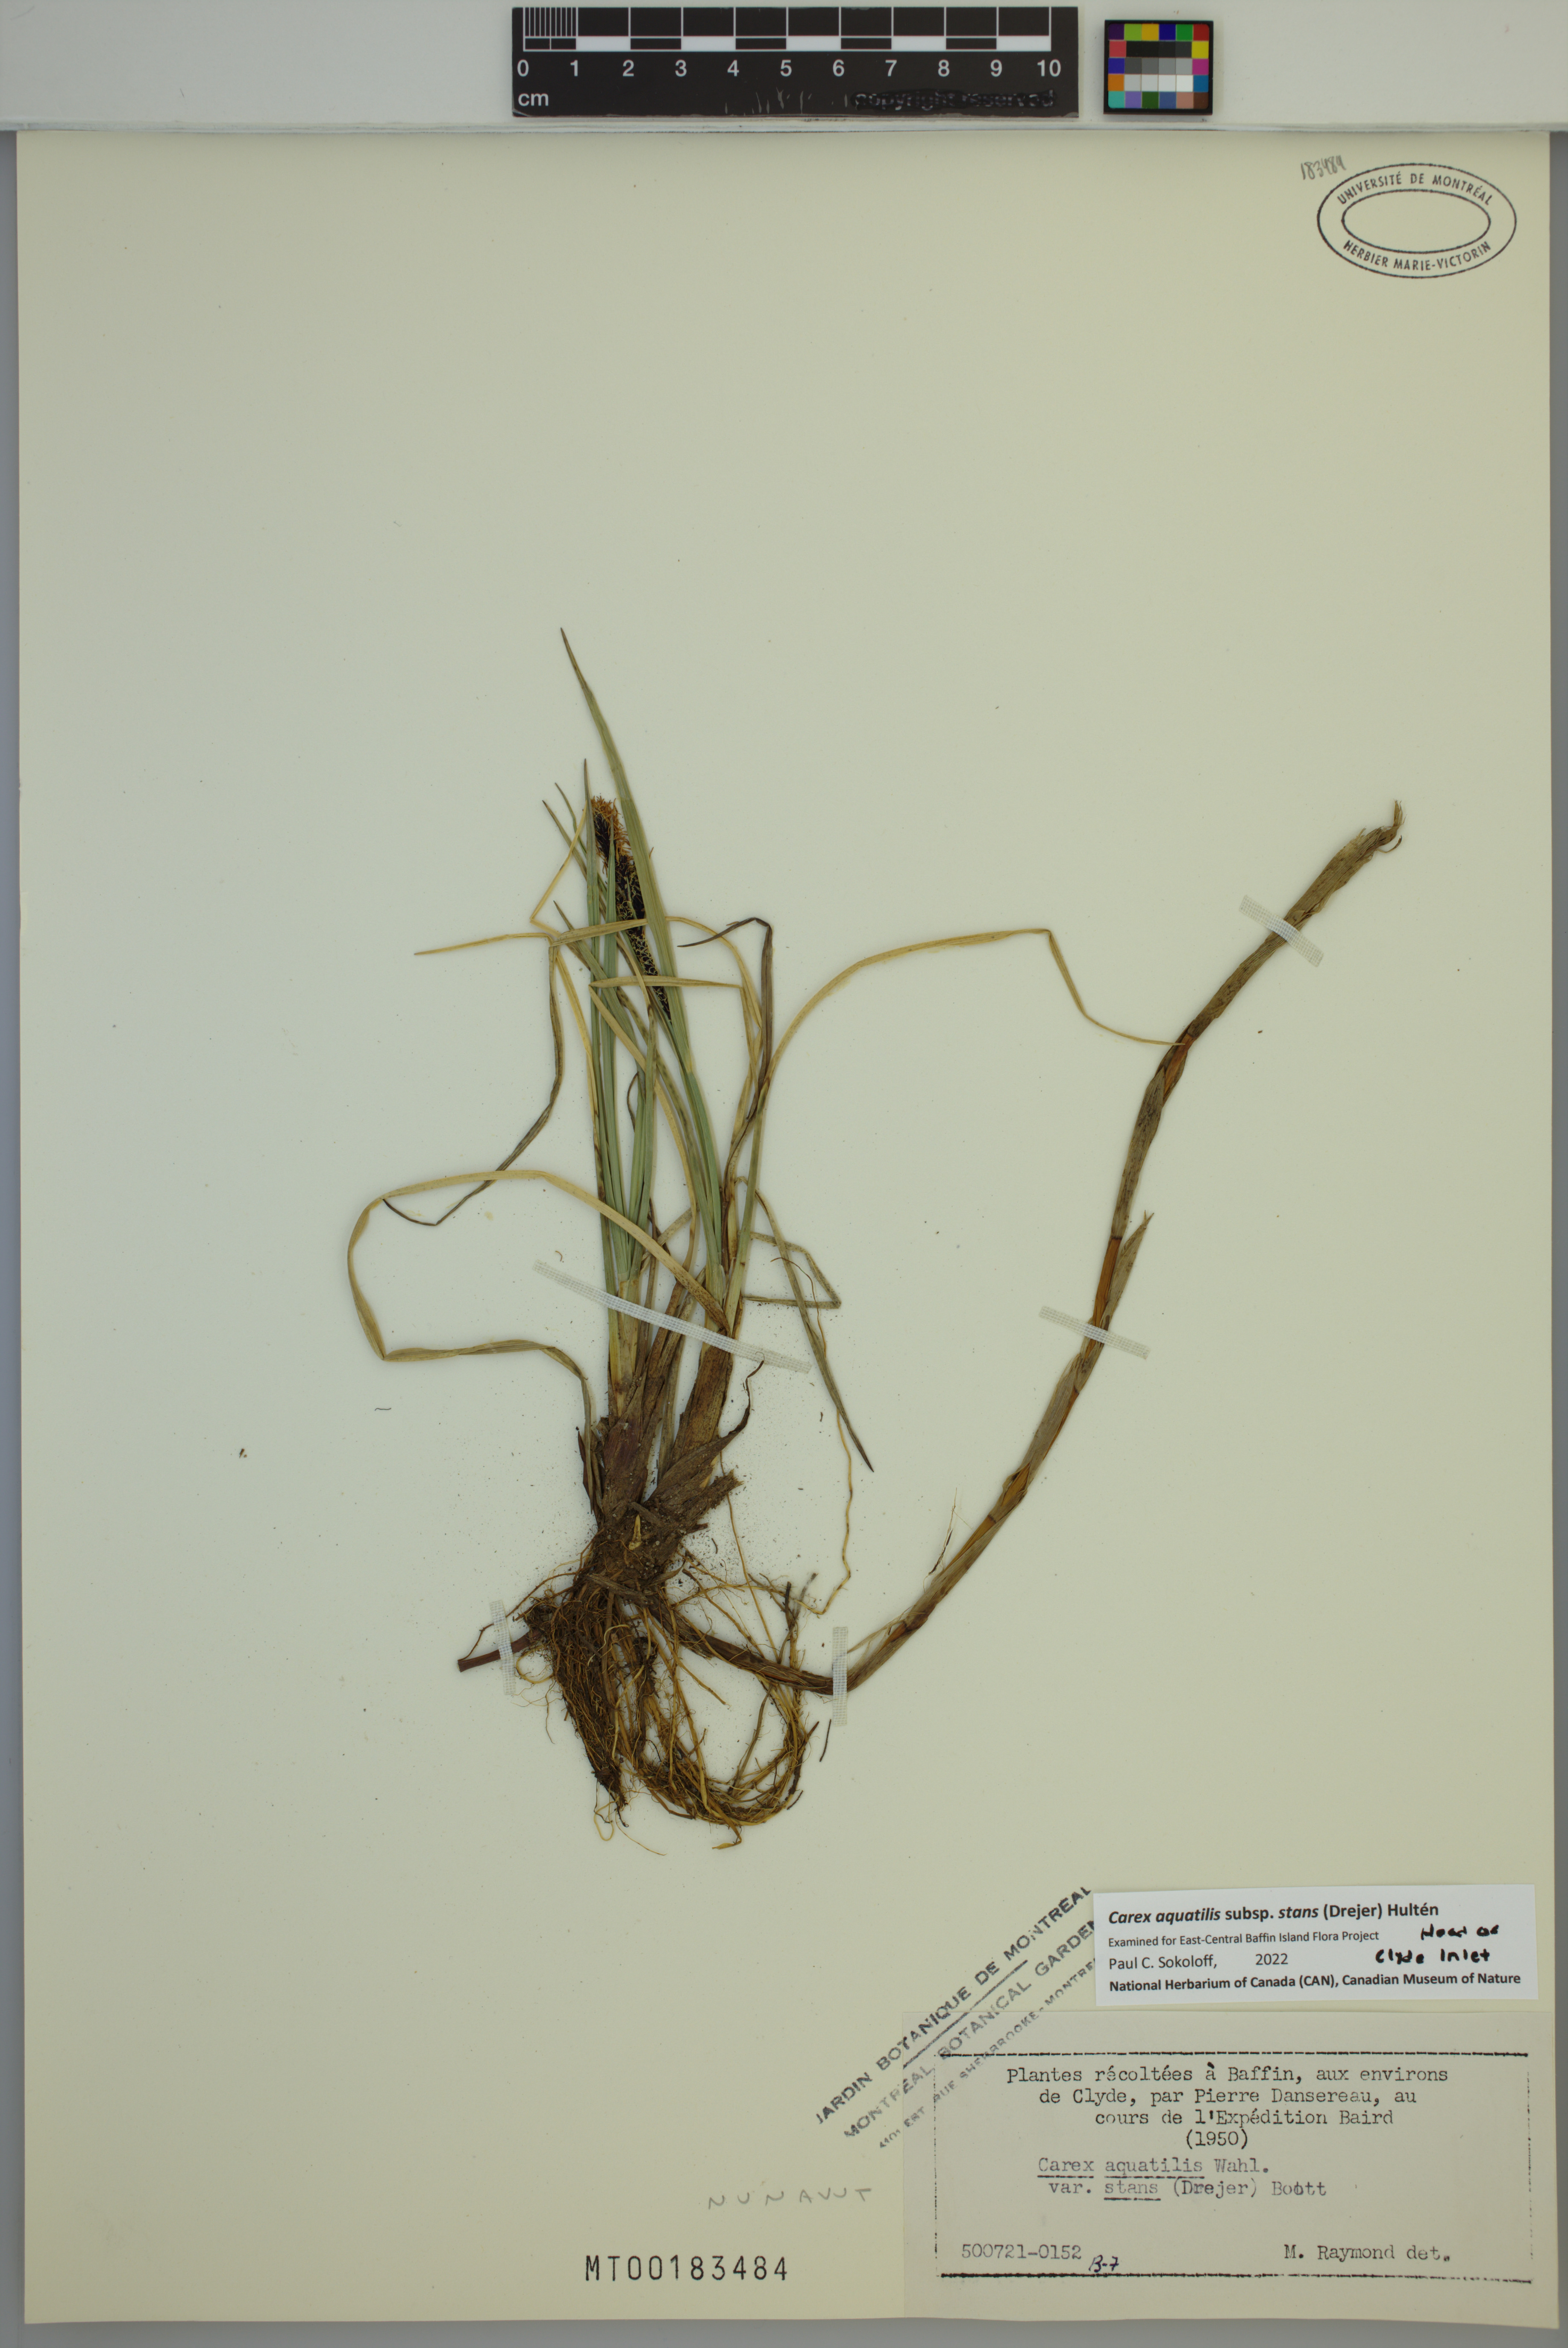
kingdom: Plantae
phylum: Tracheophyta
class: Liliopsida
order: Poales
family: Cyperaceae
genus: Carex
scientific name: Carex aquatilis
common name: Water sedge
